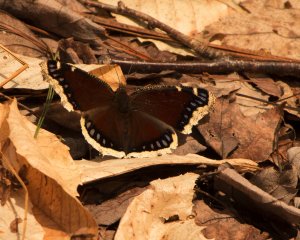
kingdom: Animalia
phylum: Arthropoda
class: Insecta
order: Lepidoptera
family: Nymphalidae
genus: Nymphalis
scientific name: Nymphalis antiopa
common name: Mourning Cloak
